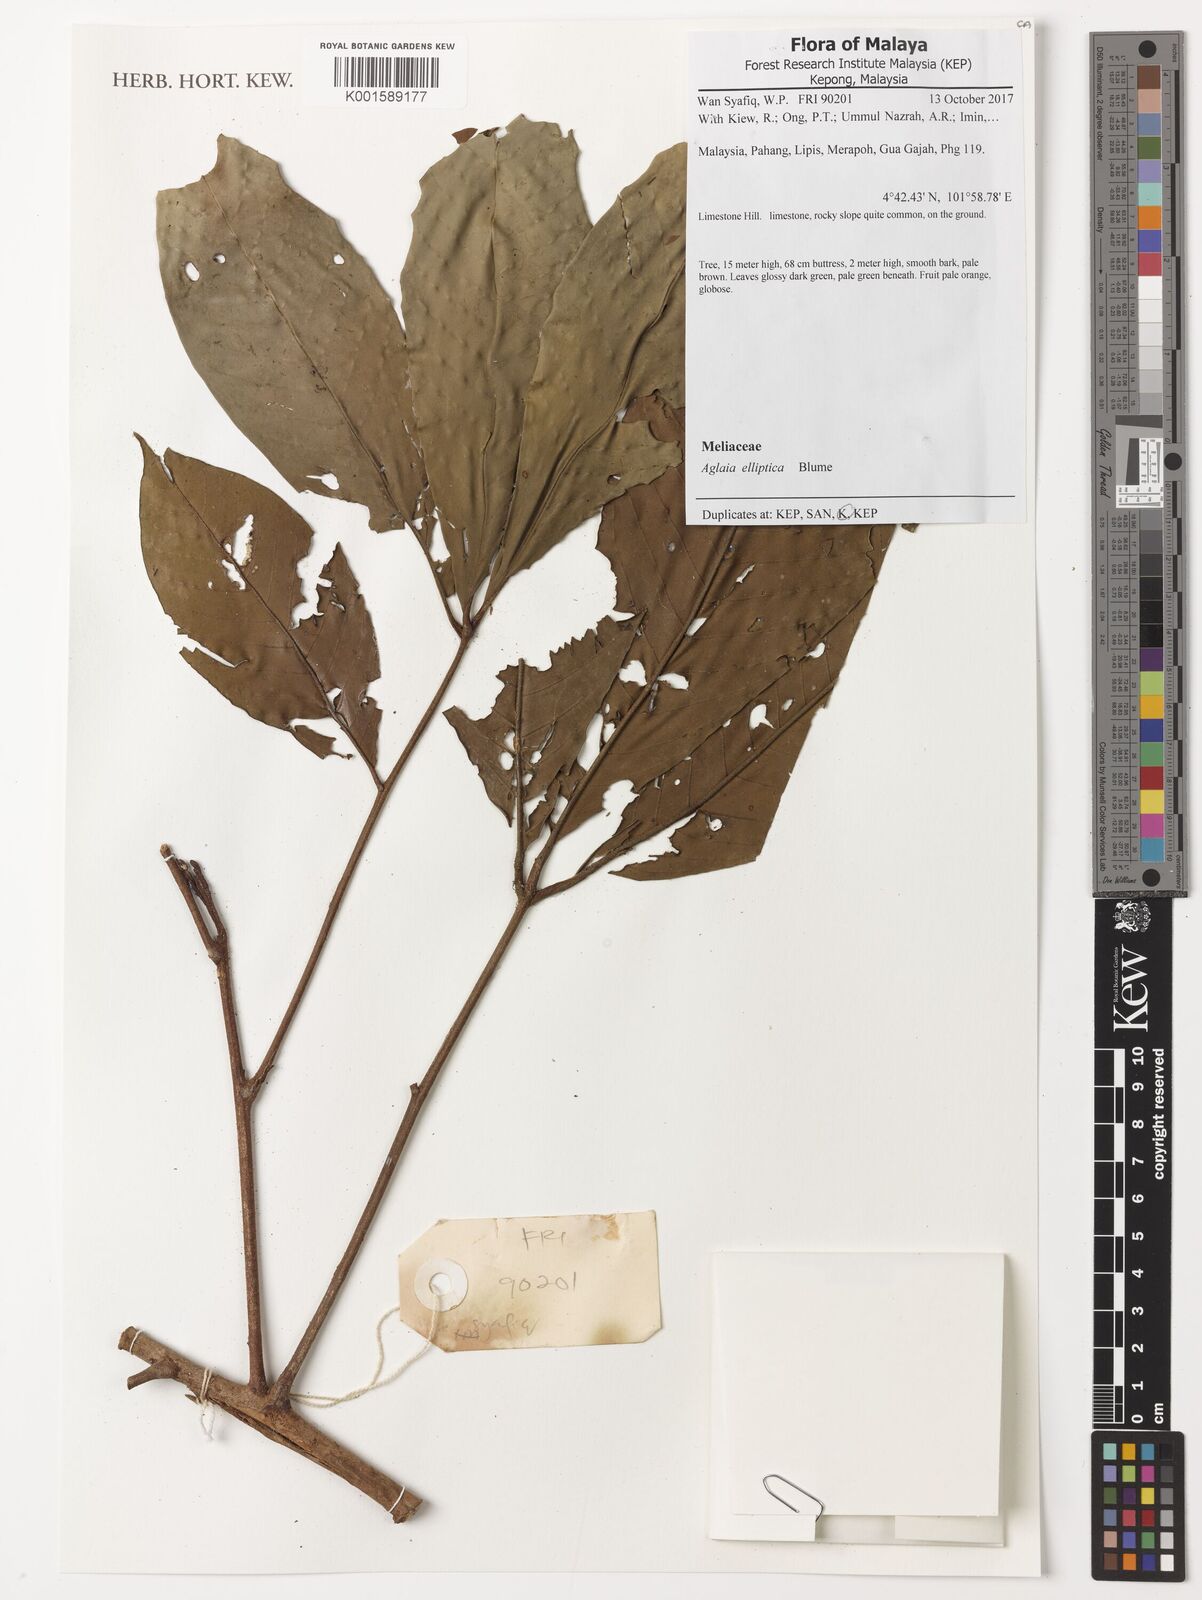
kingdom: Plantae
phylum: Tracheophyta
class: Magnoliopsida
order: Sapindales
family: Meliaceae
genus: Aglaia
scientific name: Aglaia elliptica
